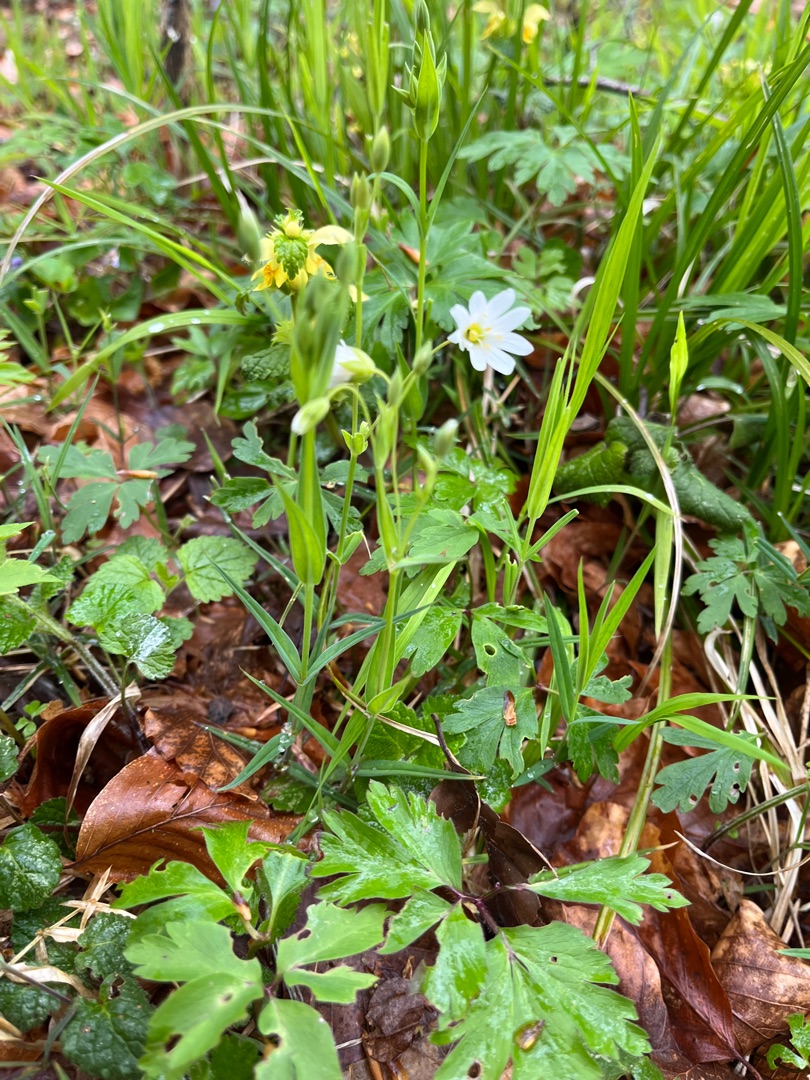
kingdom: Plantae
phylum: Tracheophyta
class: Magnoliopsida
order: Caryophyllales
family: Caryophyllaceae
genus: Rabelera
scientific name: Rabelera holostea
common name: Stor fladstjerne
